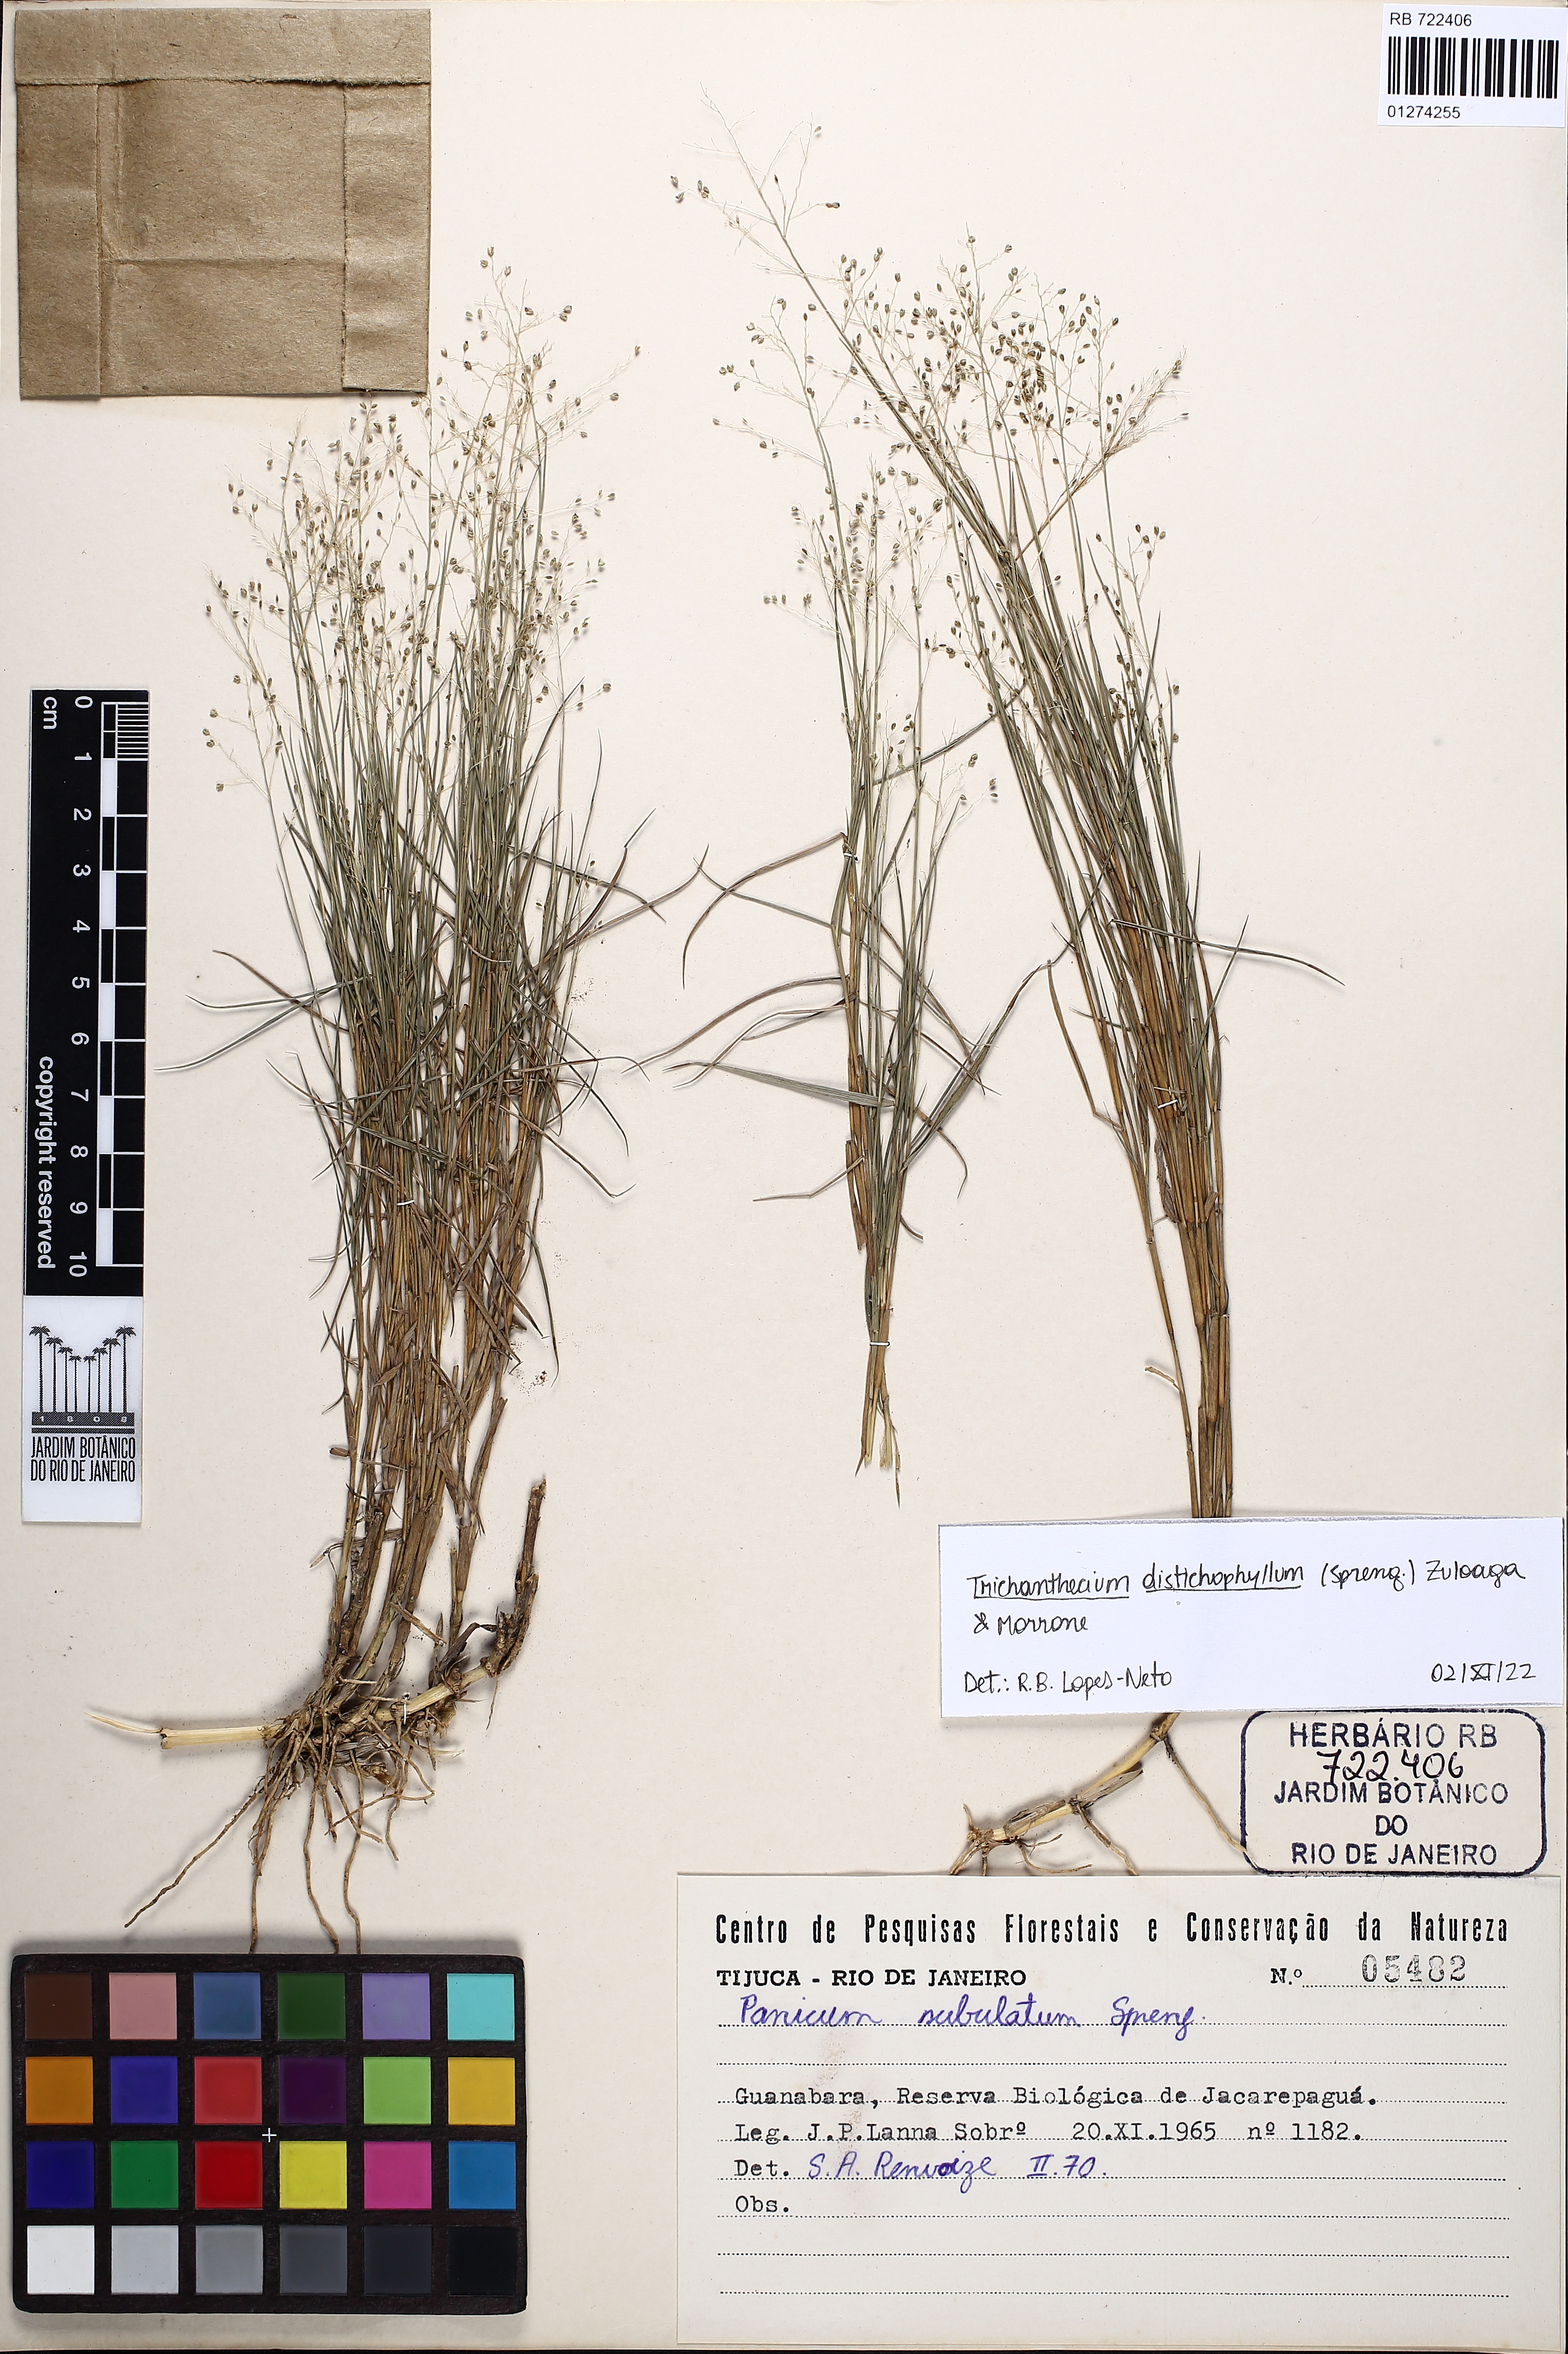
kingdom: Plantae
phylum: Tracheophyta
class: Liliopsida
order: Poales
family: Poaceae
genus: Trichanthecium
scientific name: Trichanthecium distichophyllum
